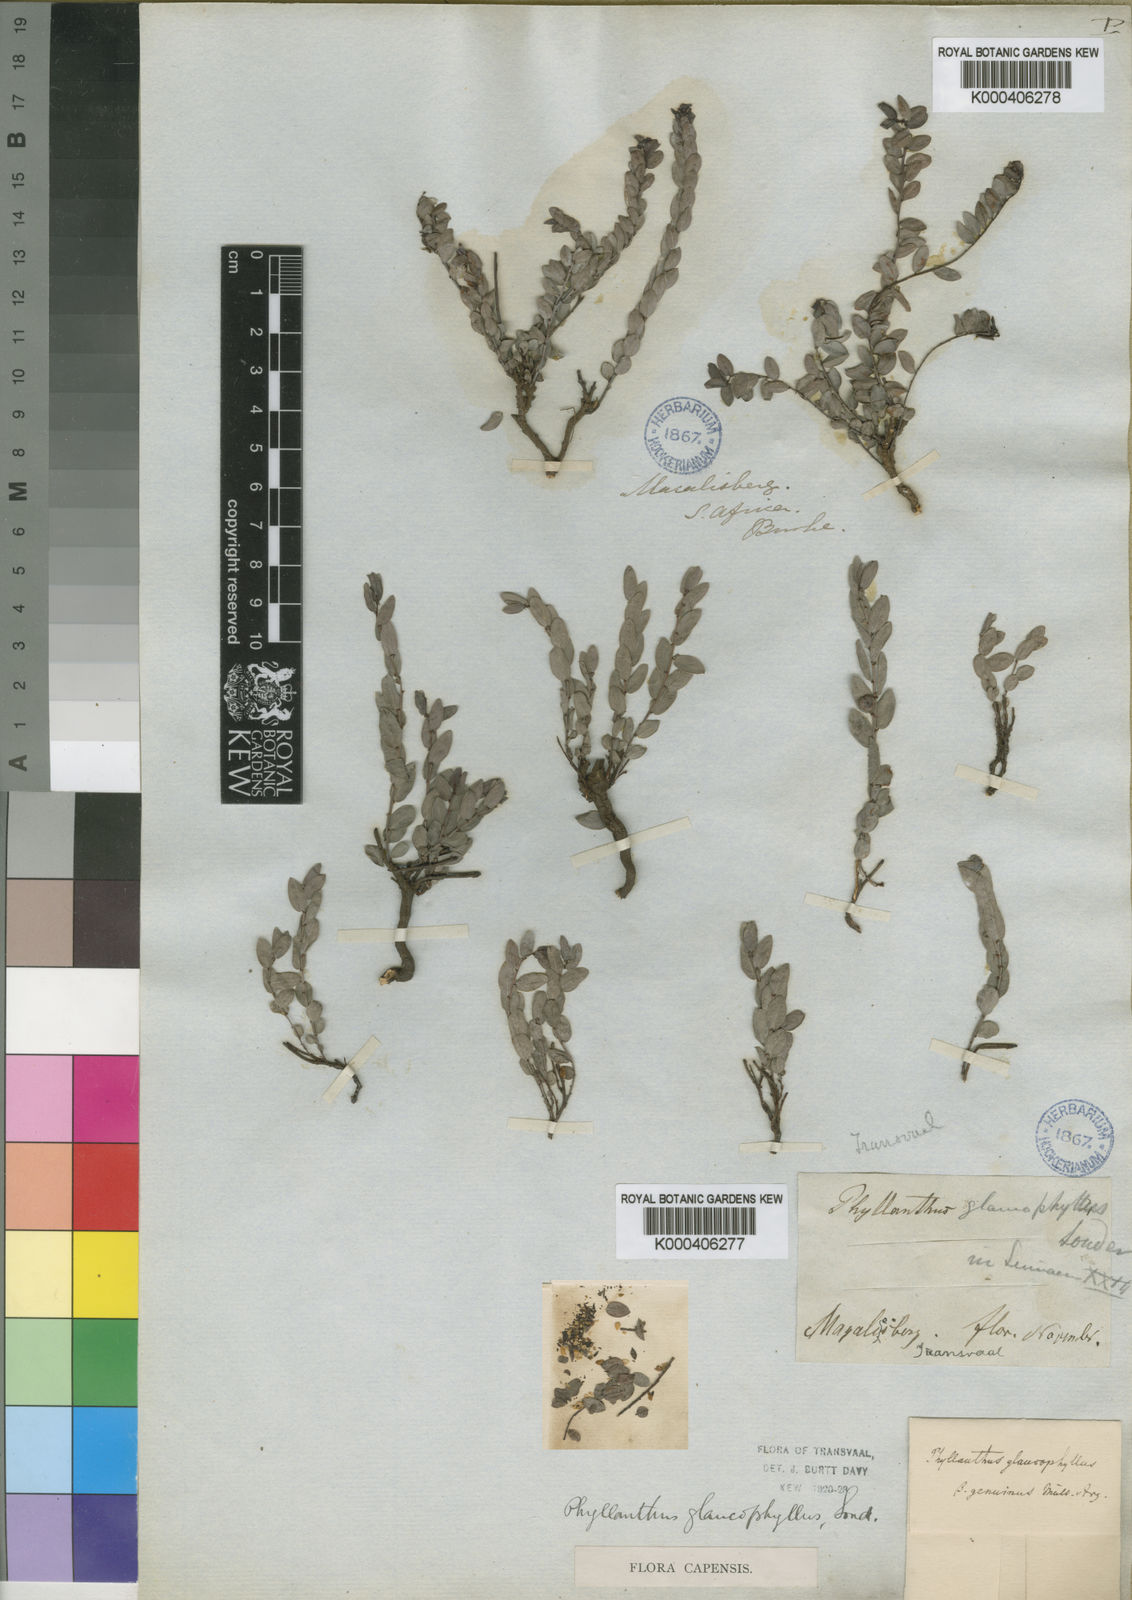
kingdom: Plantae
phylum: Tracheophyta
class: Magnoliopsida
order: Malpighiales
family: Phyllanthaceae
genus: Phyllanthus
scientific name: Phyllanthus glaucophyllus
